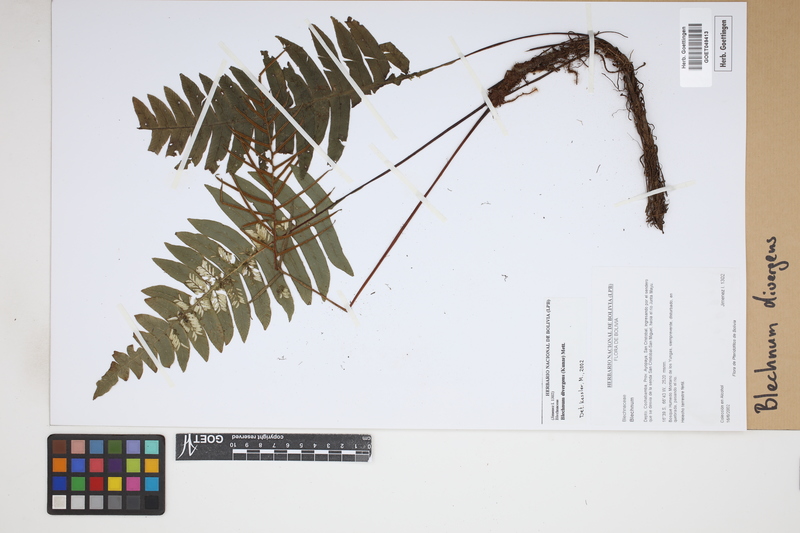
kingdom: Plantae
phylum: Tracheophyta
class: Polypodiopsida
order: Polypodiales
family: Blechnaceae
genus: Austroblechnum
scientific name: Austroblechnum divergens
